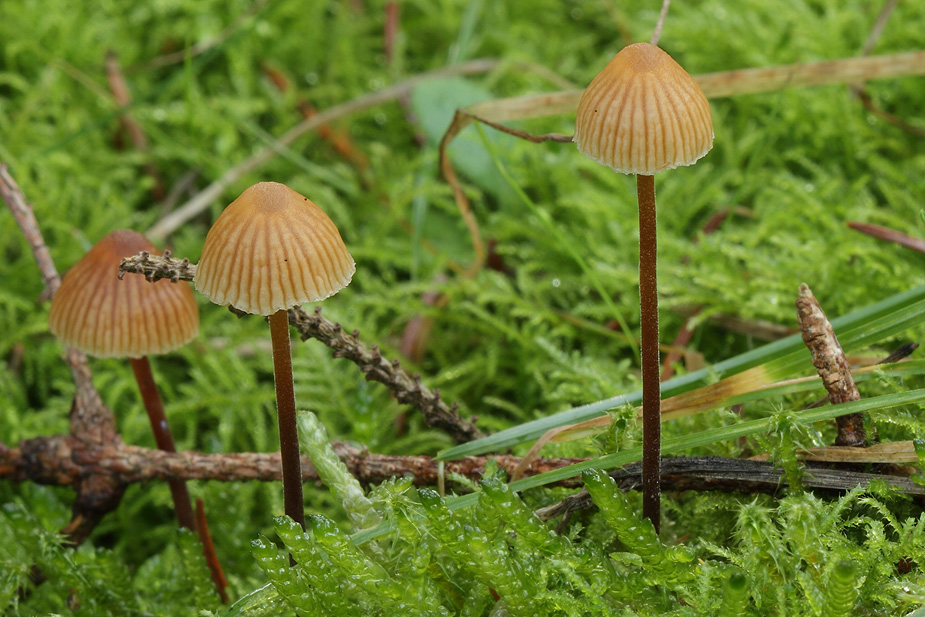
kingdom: Fungi
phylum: Basidiomycota
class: Agaricomycetes
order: Agaricales
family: Hymenogastraceae
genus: Galerina
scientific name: Galerina vittiformis
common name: Hairy leg bell
